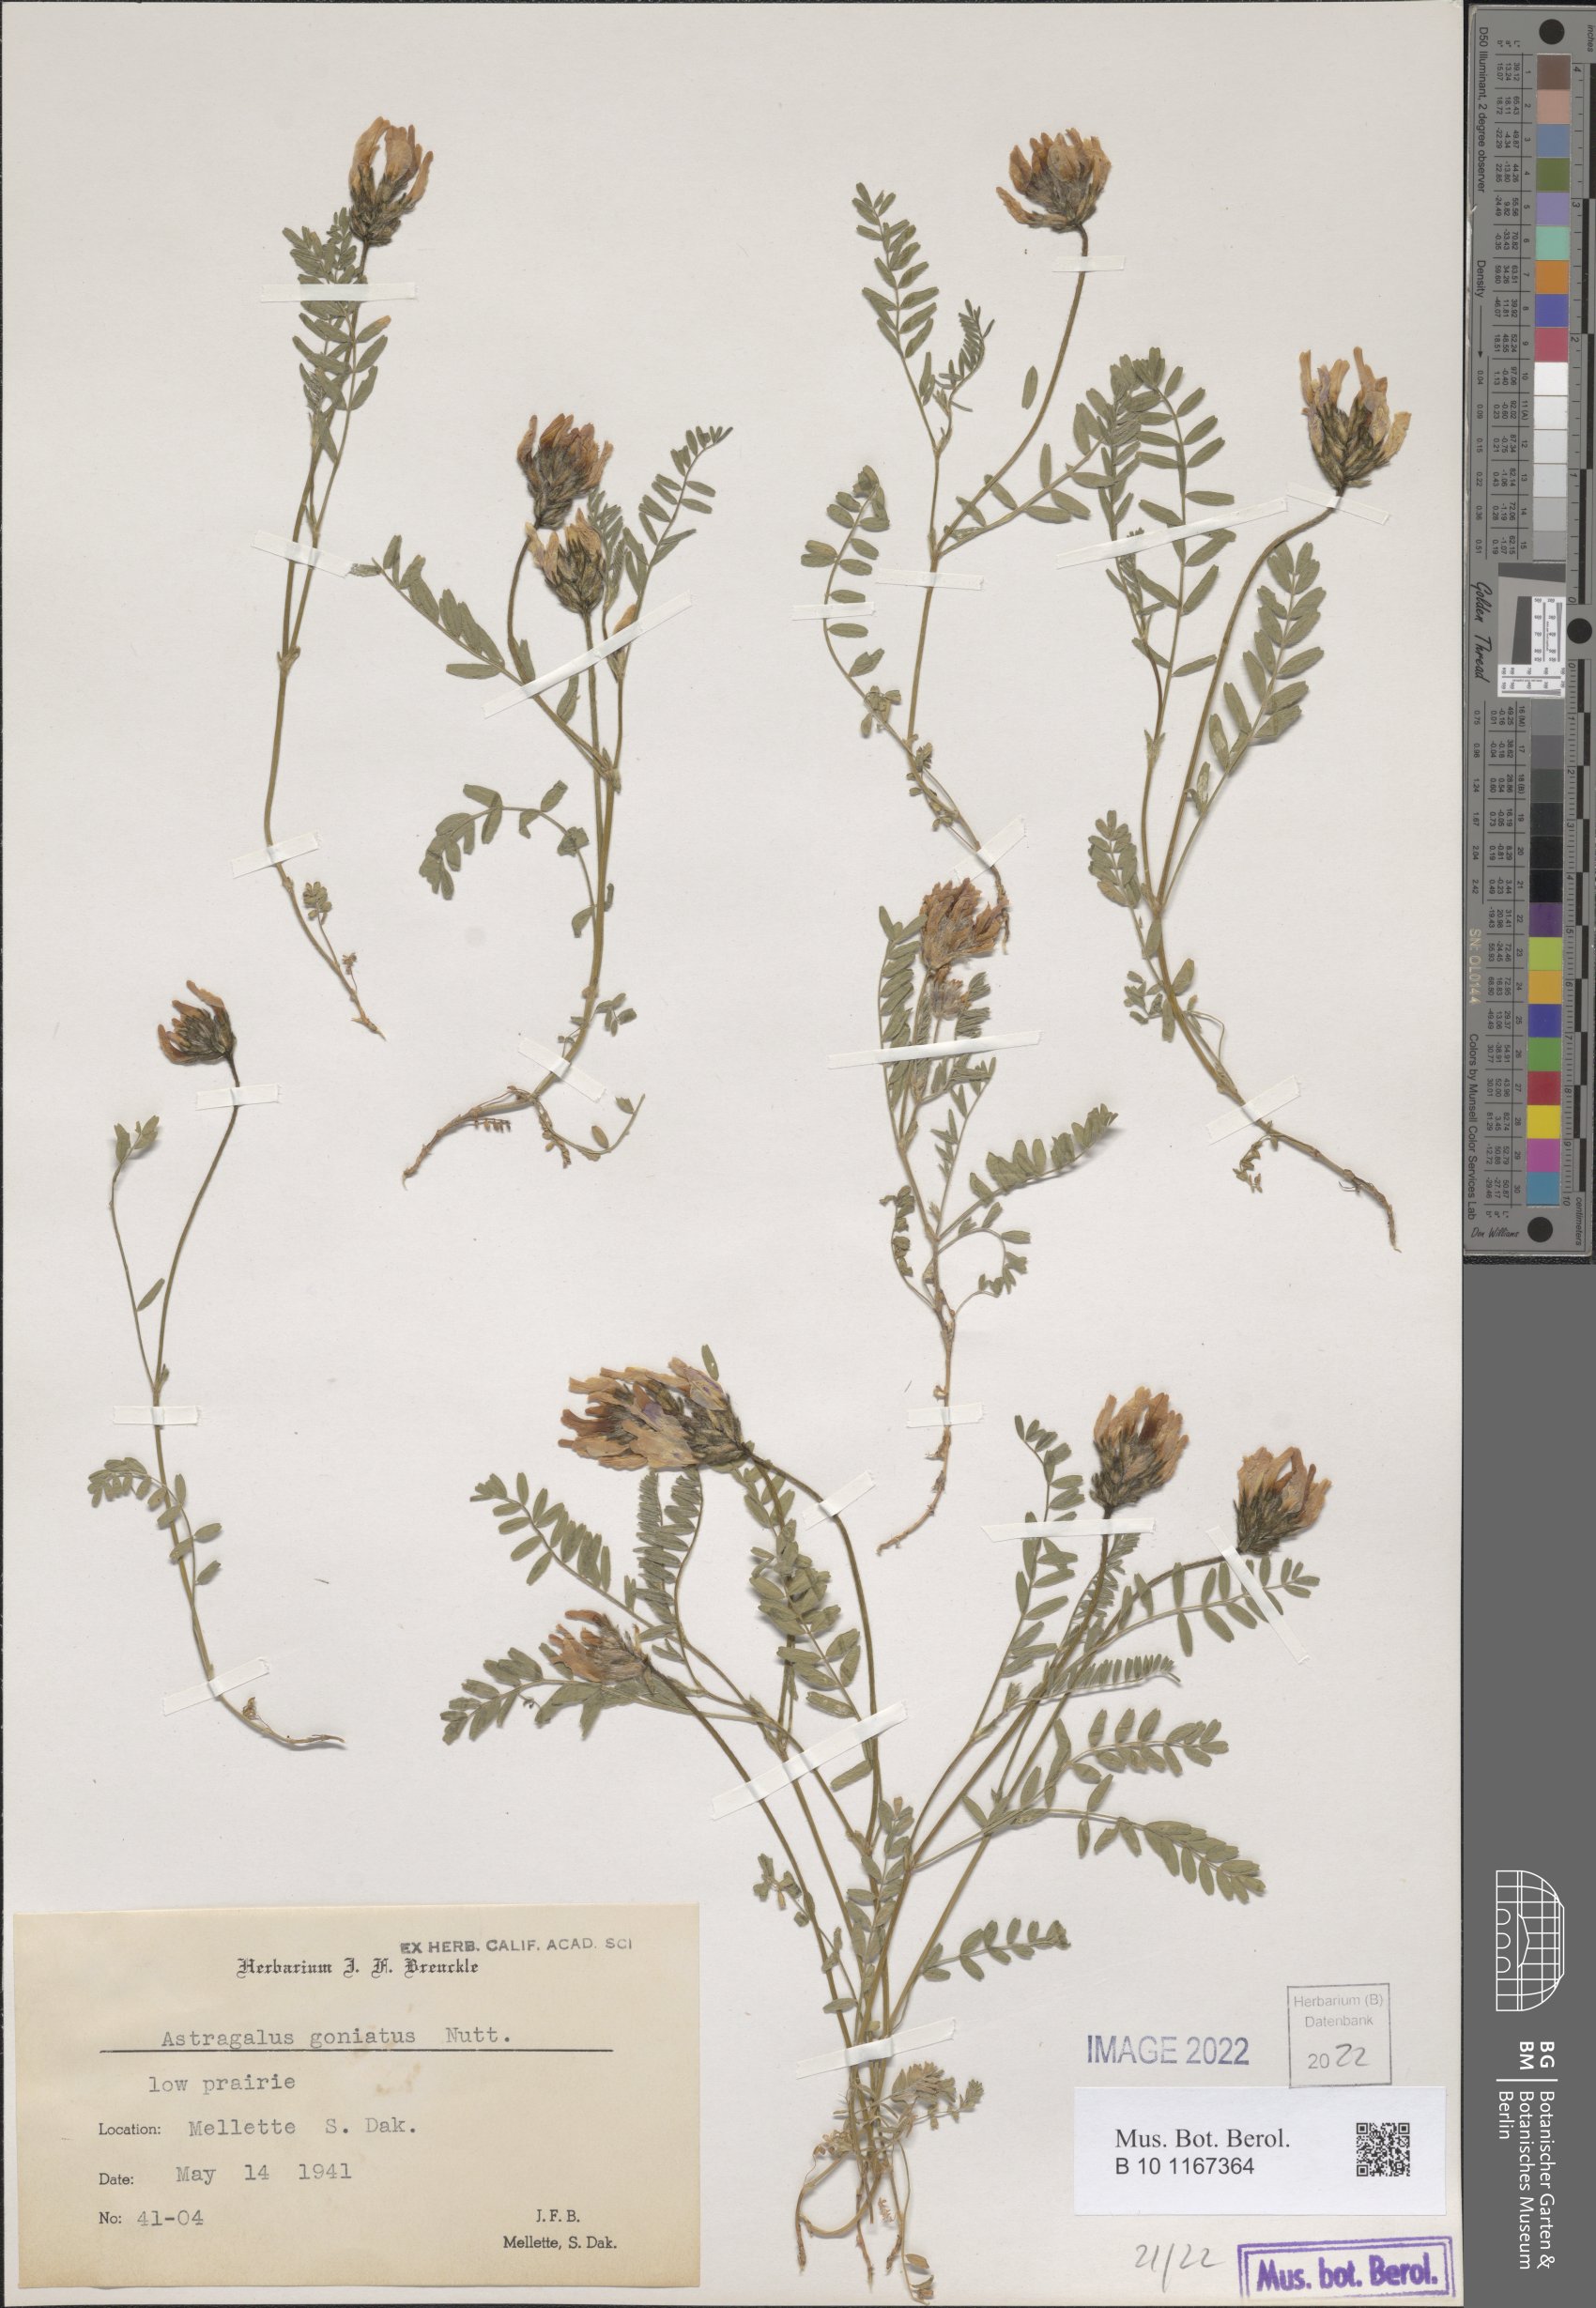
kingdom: Plantae
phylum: Tracheophyta
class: Magnoliopsida
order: Fabales
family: Fabaceae
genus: Astragalus
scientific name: Astragalus agrestis
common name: Field milk-vetch
